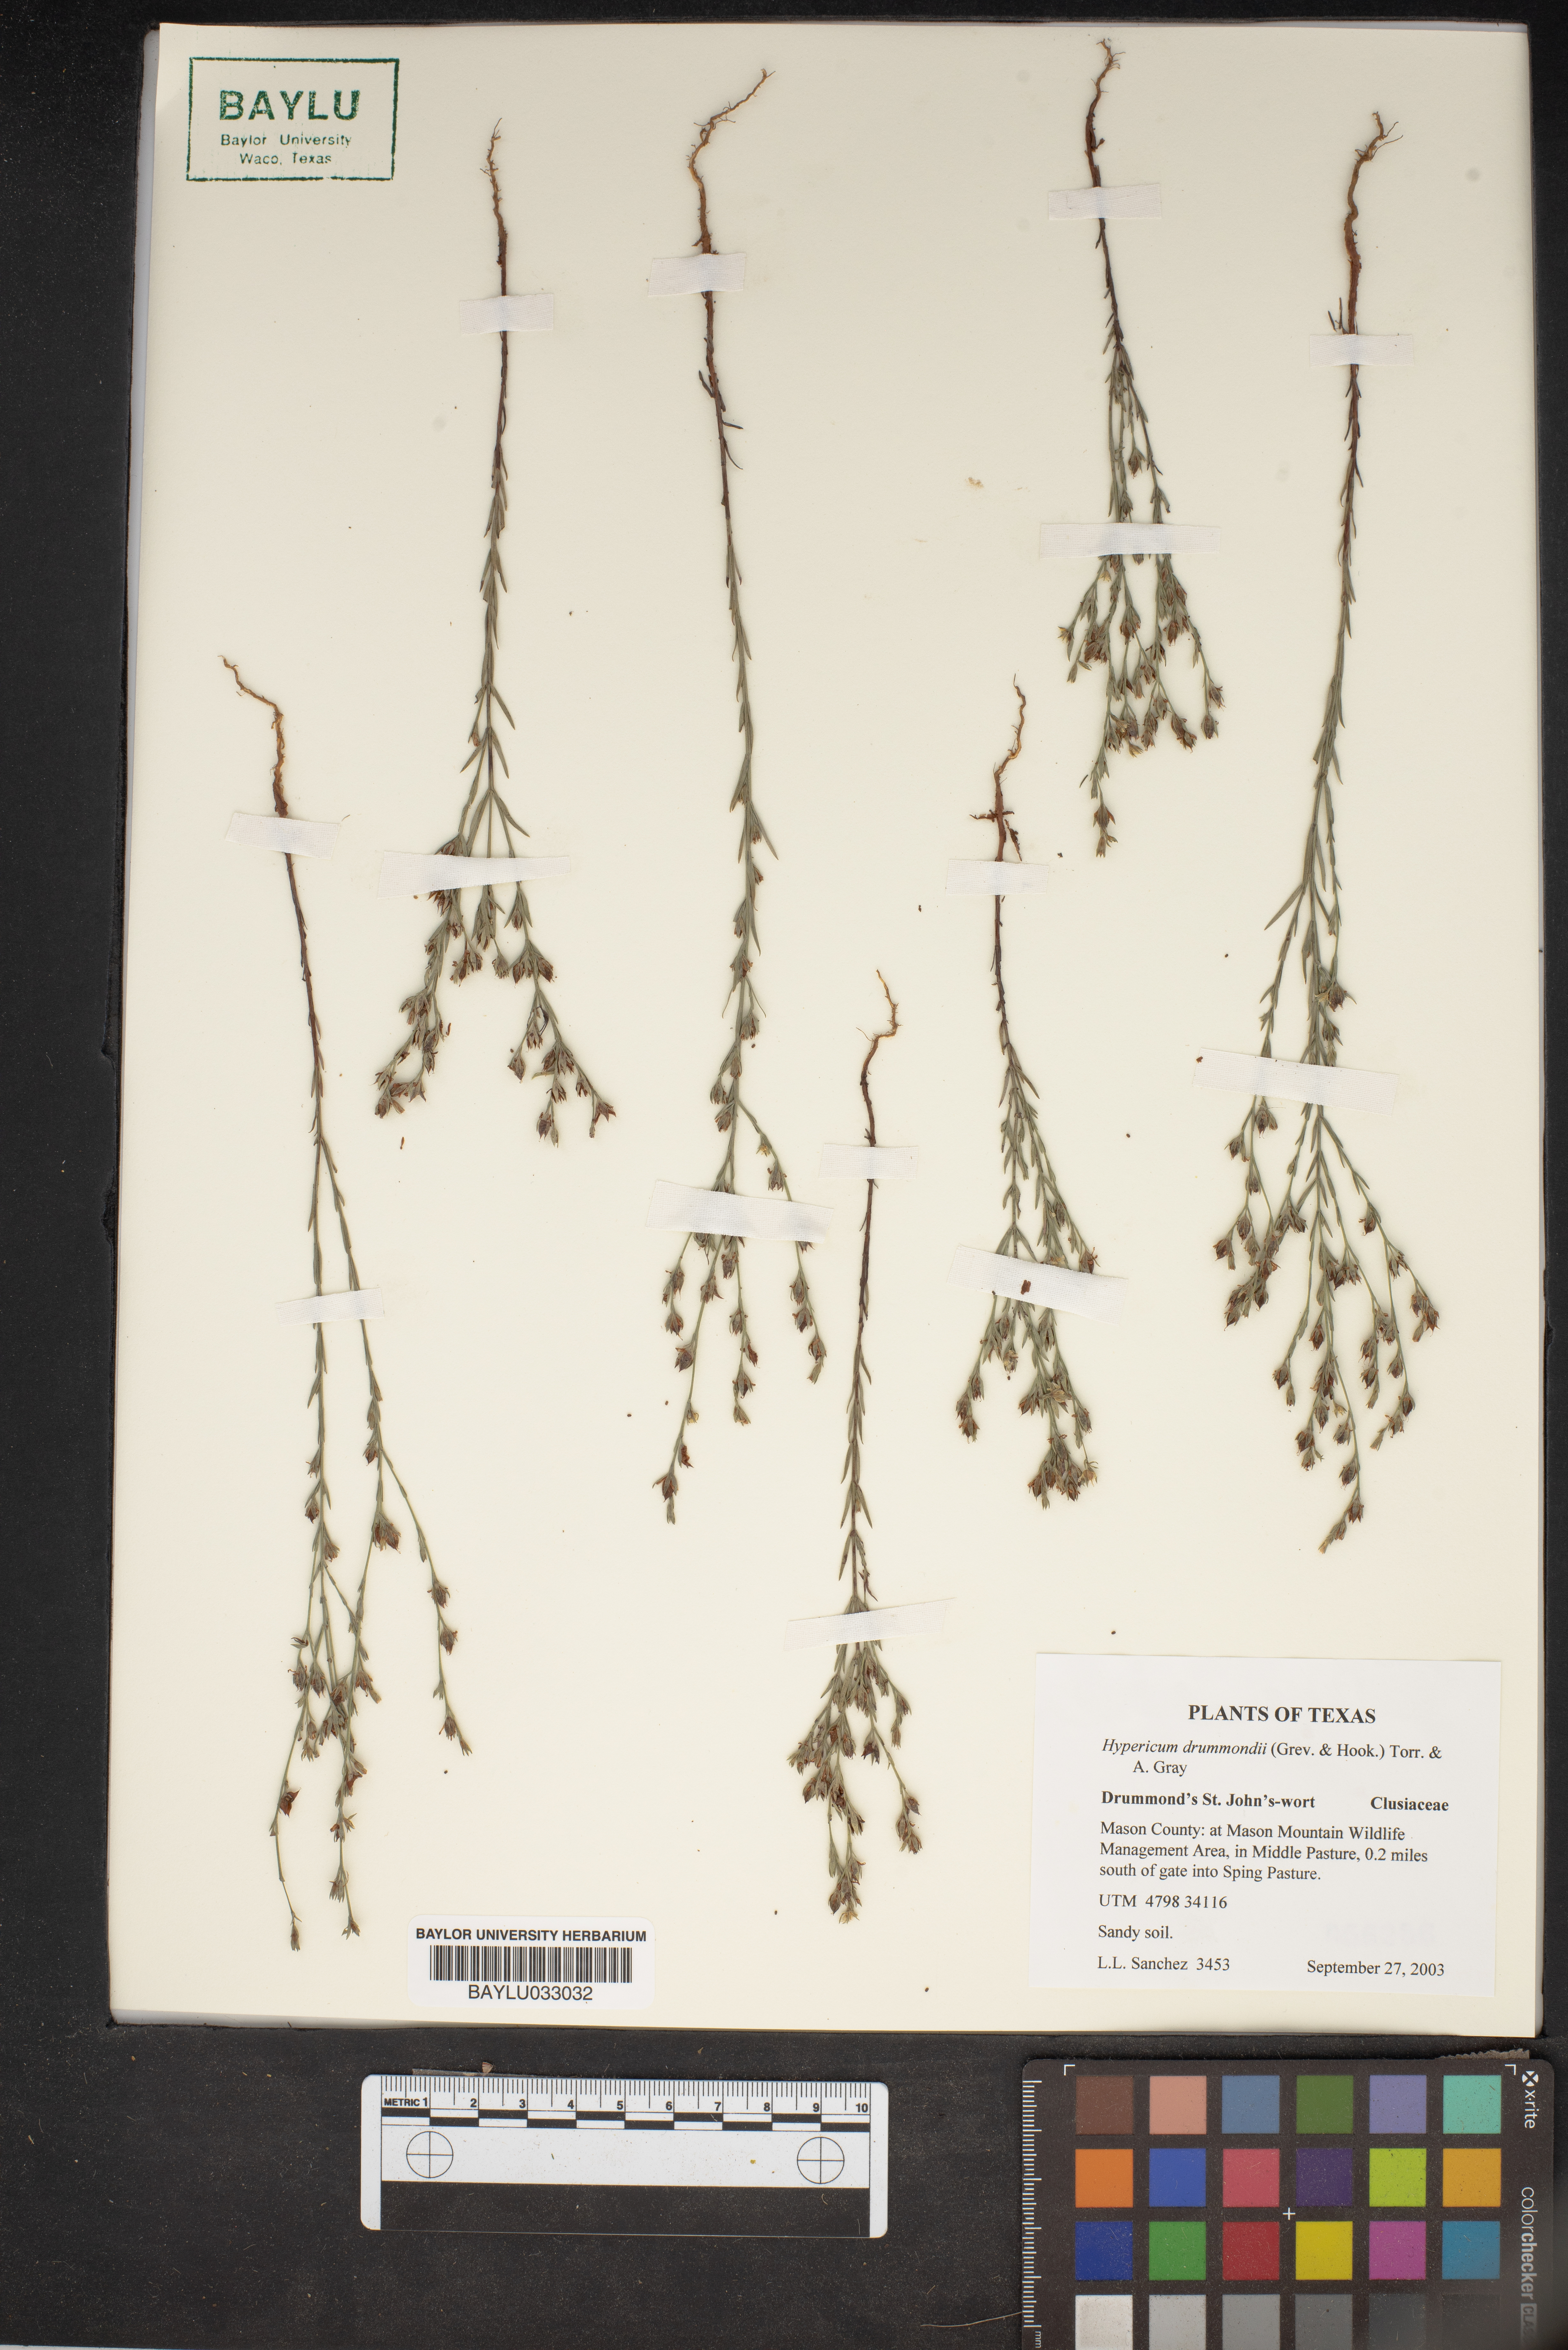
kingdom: Plantae
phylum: Tracheophyta
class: Magnoliopsida
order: Malpighiales
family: Hypericaceae
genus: Hypericum
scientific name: Hypericum drummondii
